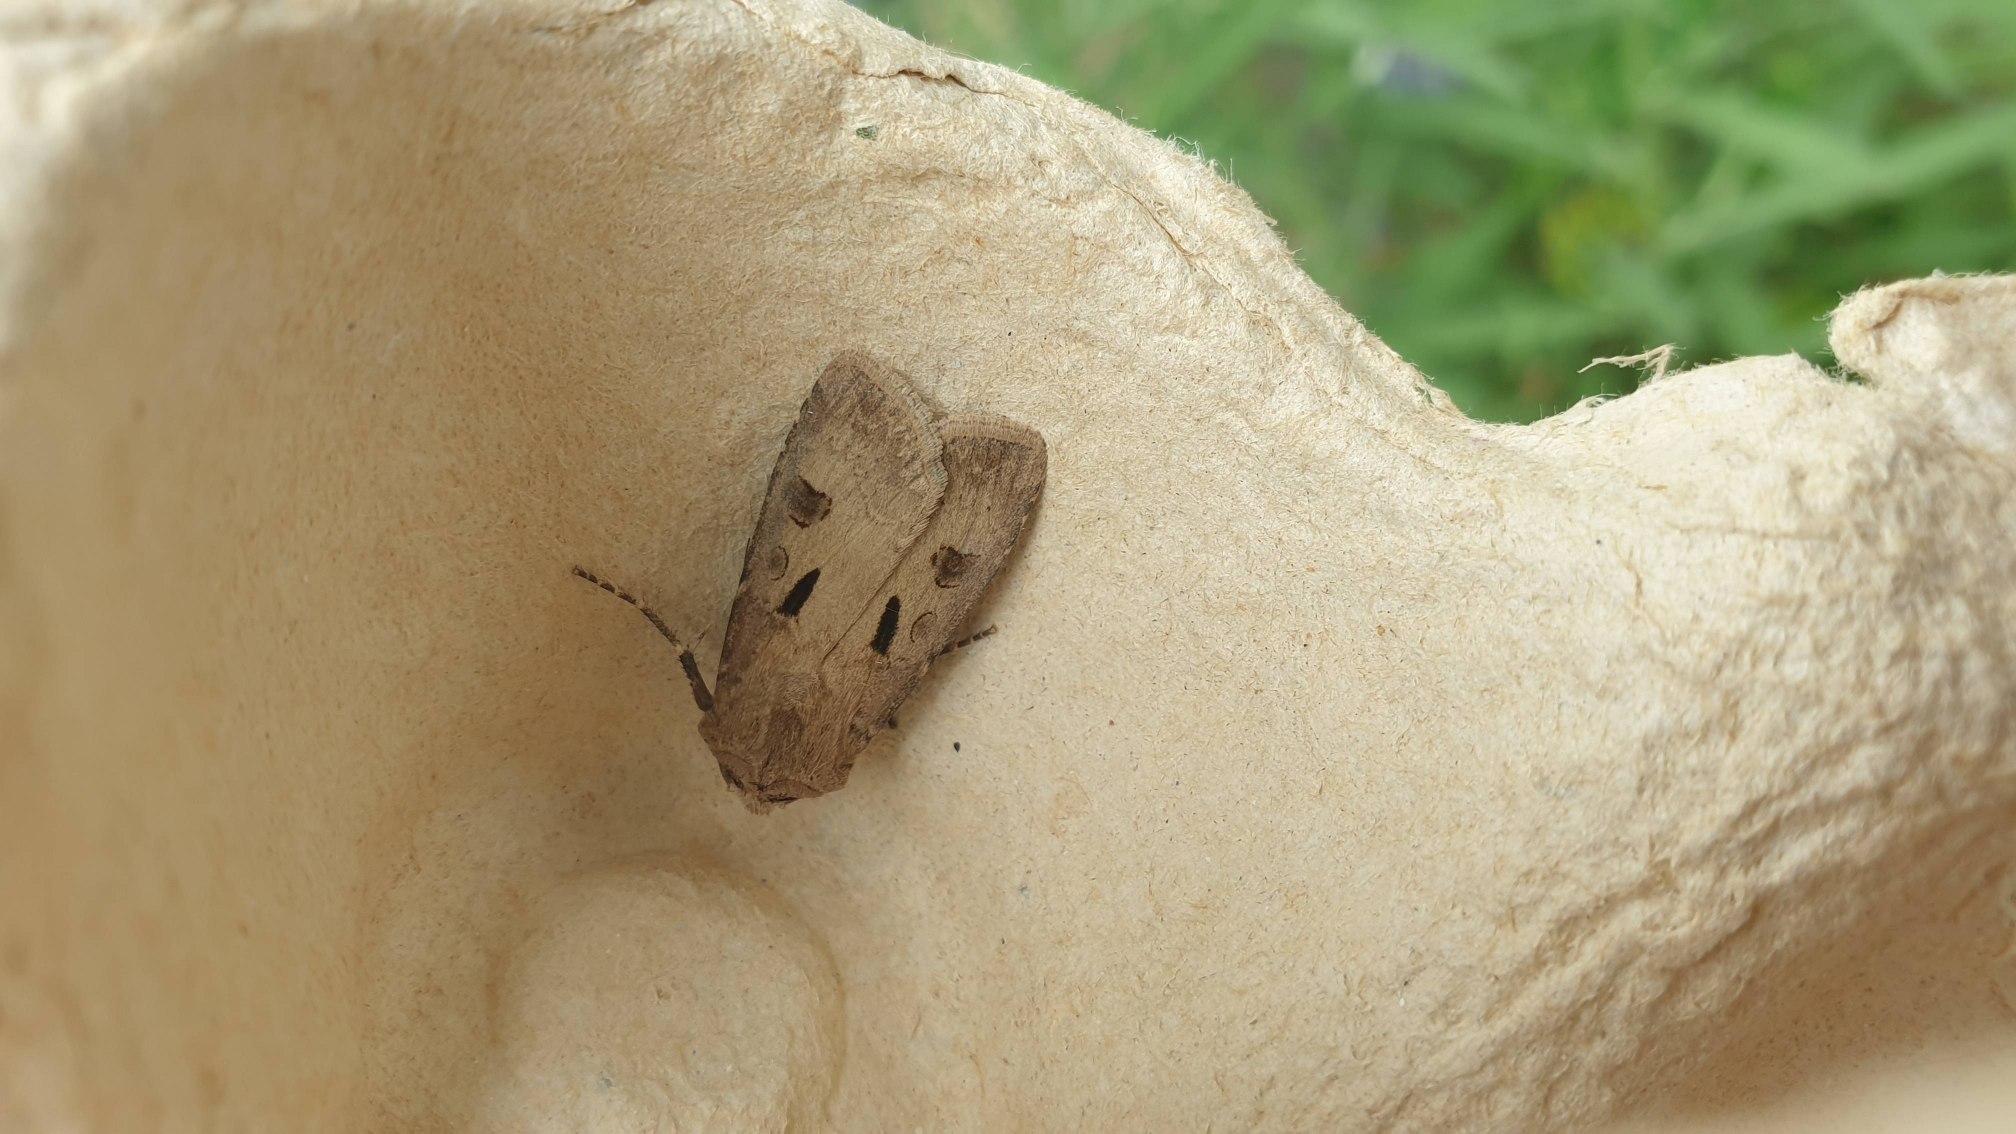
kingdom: Animalia
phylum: Arthropoda
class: Insecta
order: Lepidoptera
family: Noctuidae
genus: Agrotis
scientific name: Agrotis exclamationis
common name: Udråbstegnsugle
